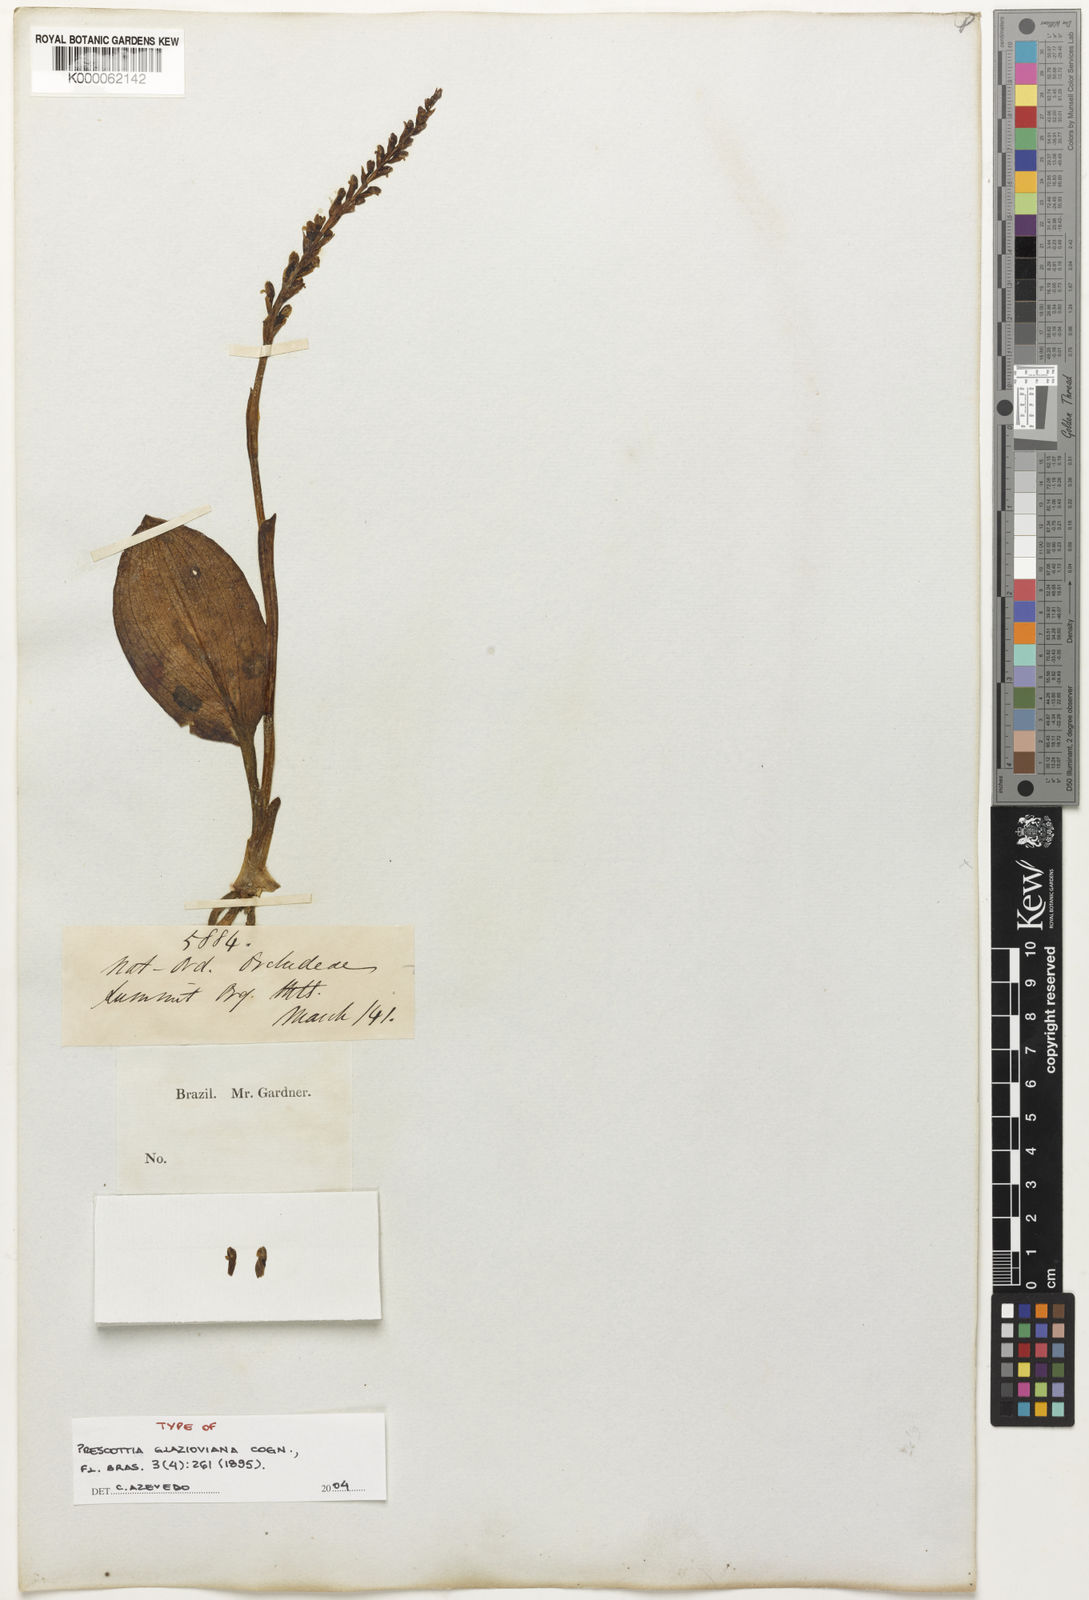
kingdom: Plantae
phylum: Tracheophyta
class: Liliopsida
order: Asparagales
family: Orchidaceae
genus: Prescottia
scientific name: Prescottia glazioviana
